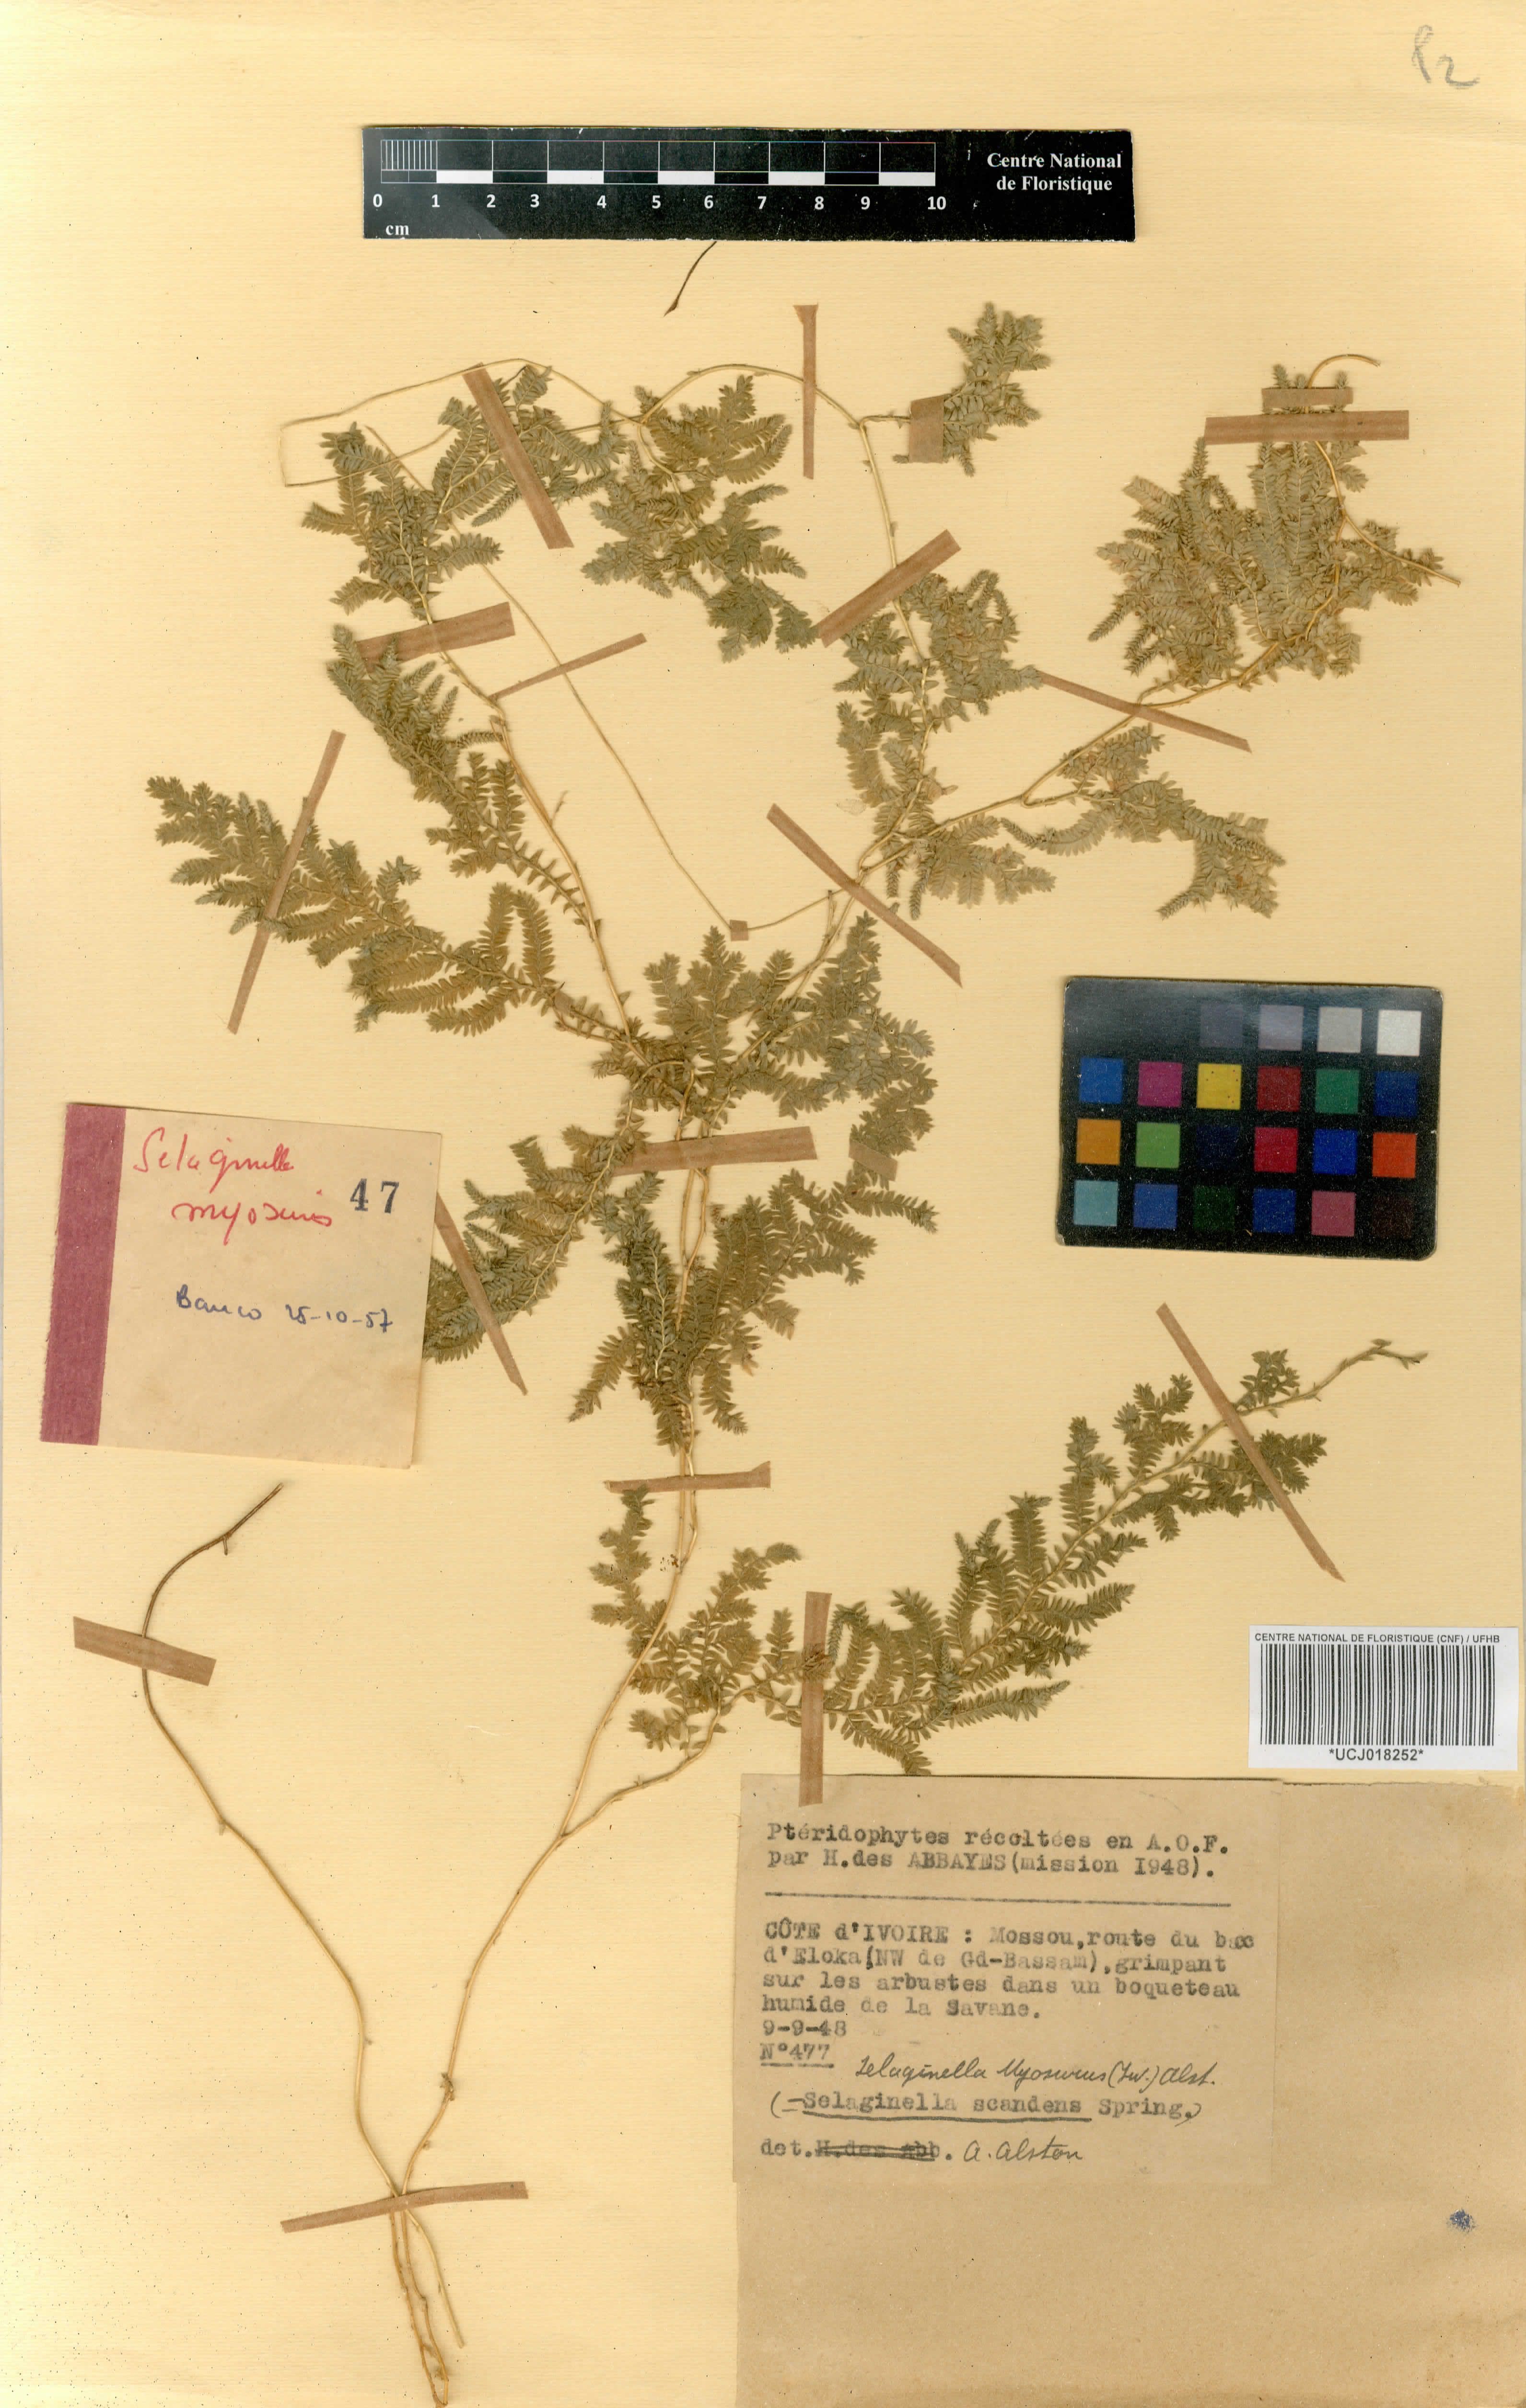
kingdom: Plantae
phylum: Tracheophyta
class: Lycopodiopsida
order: Selaginellales
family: Selaginellaceae
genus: Selaginella
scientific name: Selaginella myosurus
